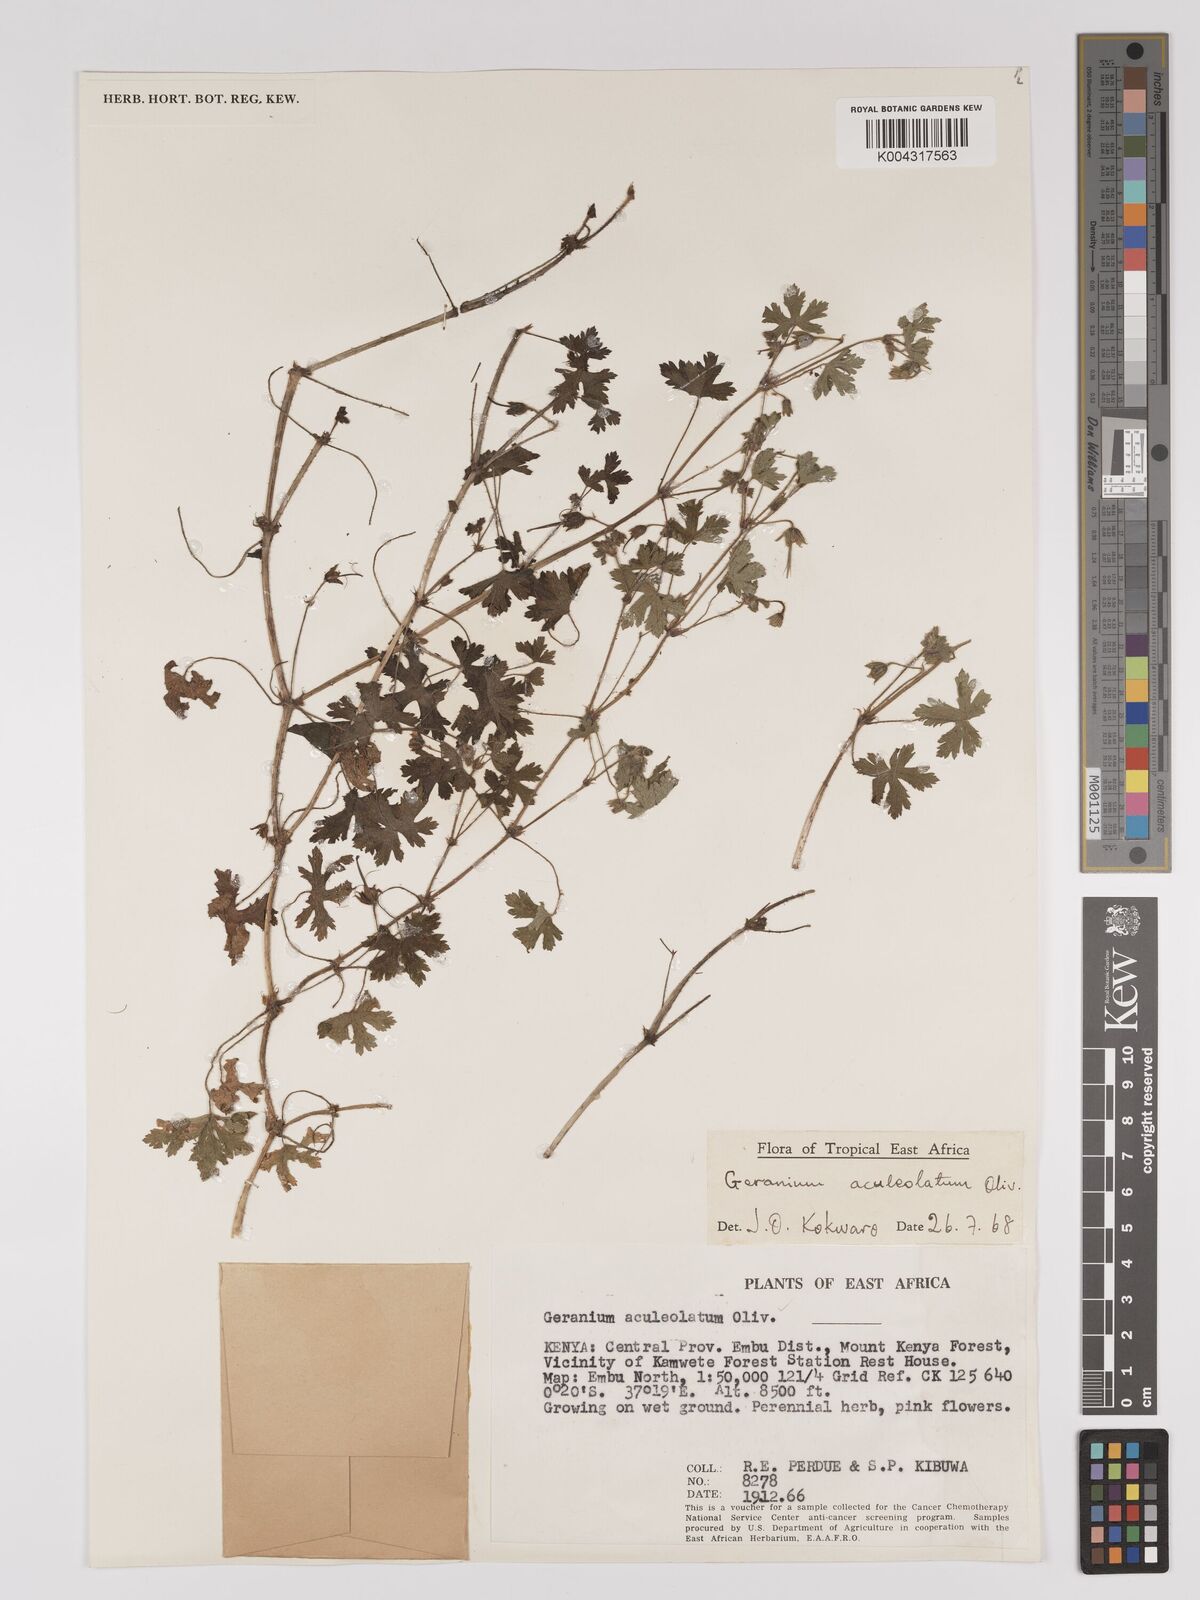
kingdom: Plantae
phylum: Tracheophyta
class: Magnoliopsida
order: Geraniales
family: Geraniaceae
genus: Geranium
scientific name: Geranium aculeolatum
